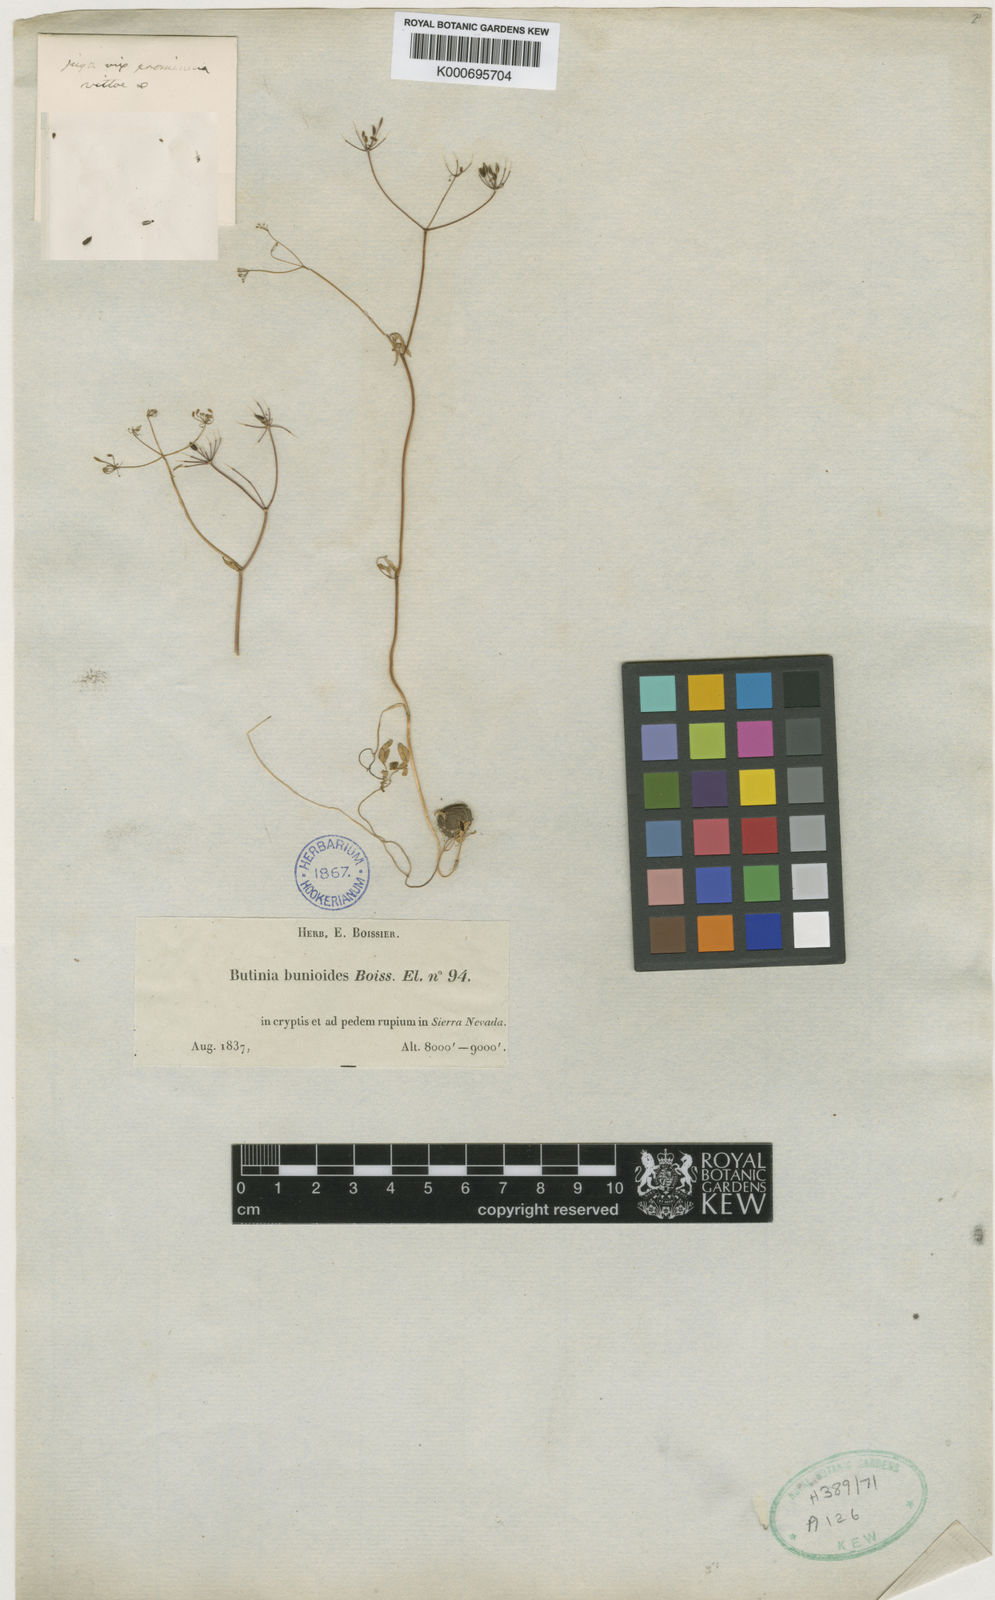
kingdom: Plantae
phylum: Tracheophyta
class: Magnoliopsida
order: Apiales
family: Apiaceae
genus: Conopodium
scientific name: Conopodium bunioides
